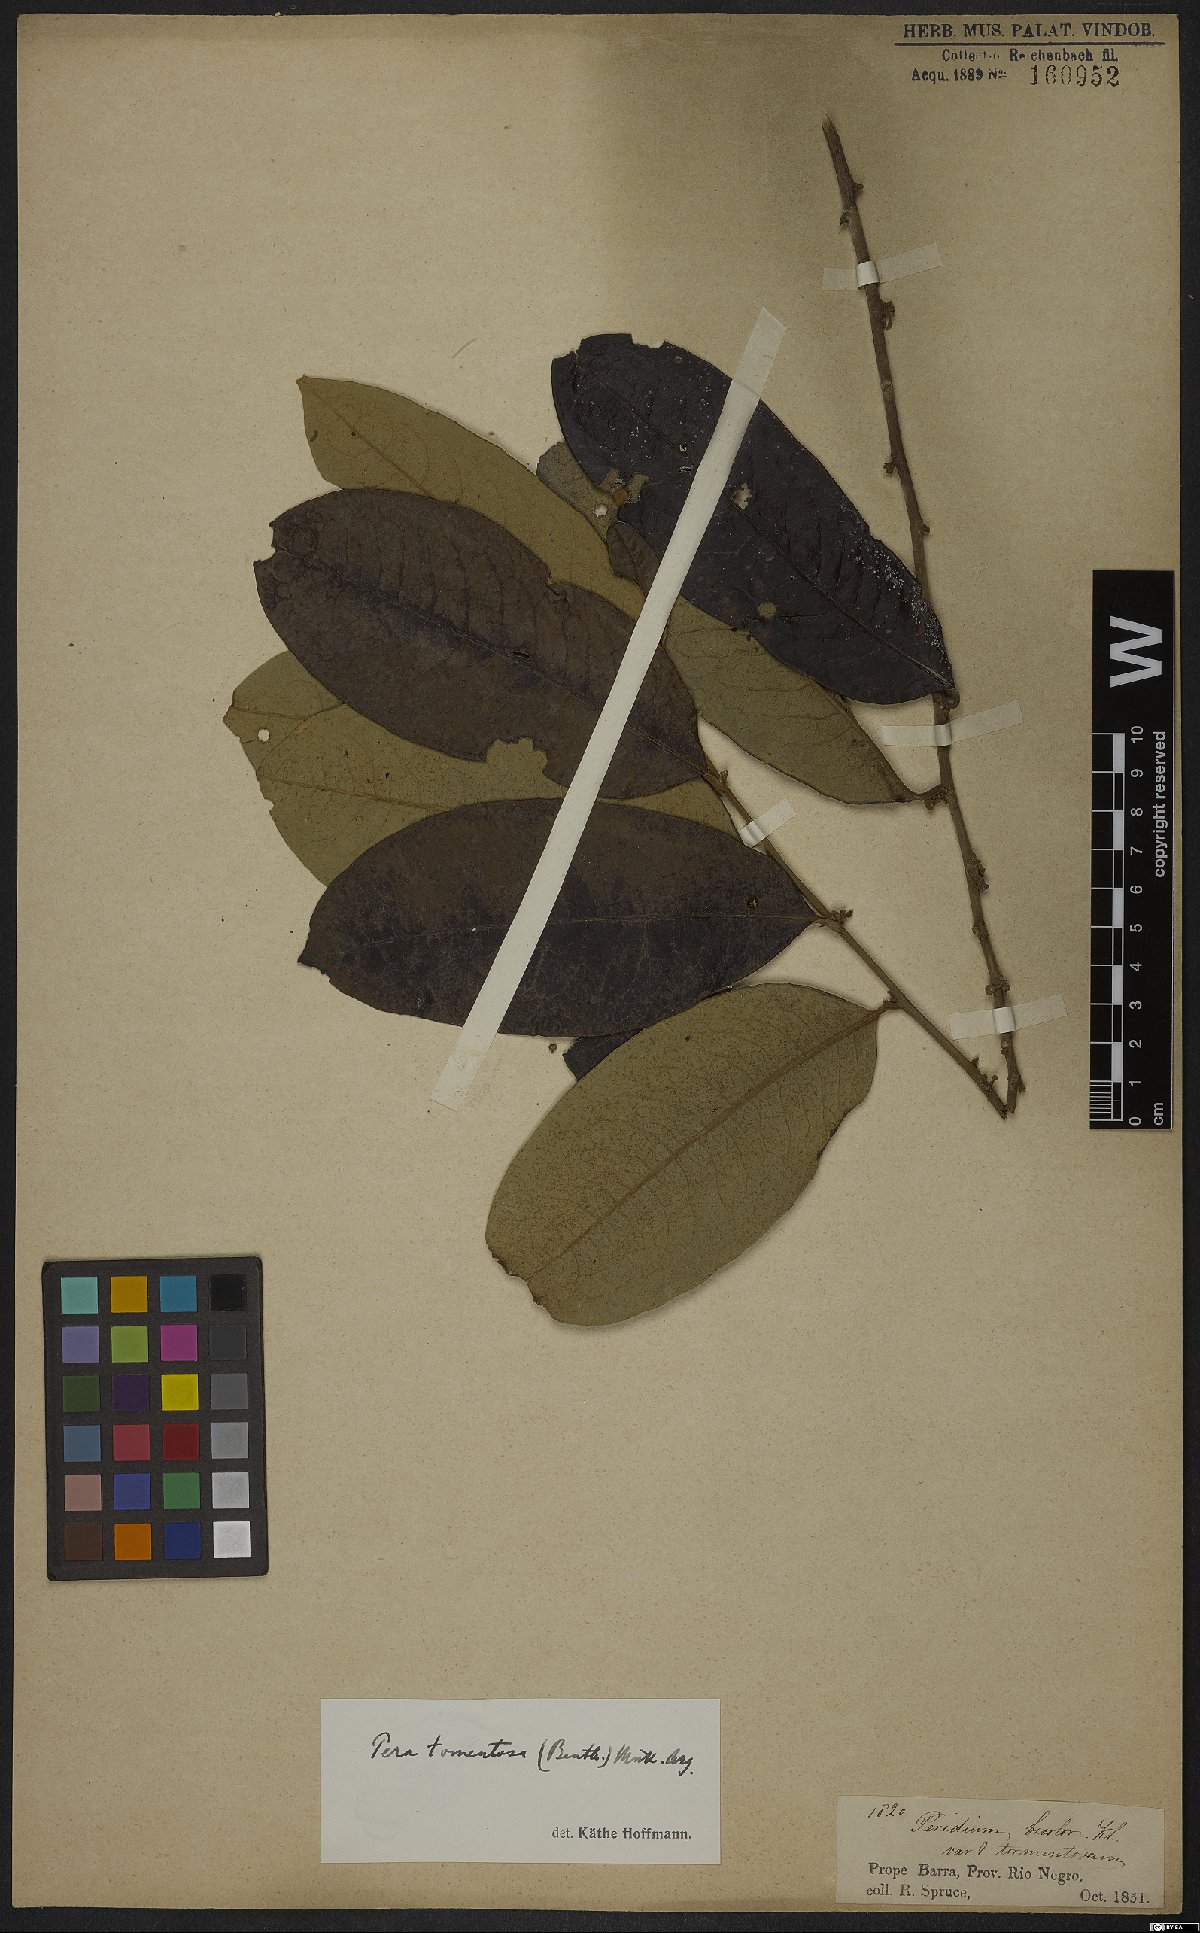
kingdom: Plantae
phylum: Tracheophyta
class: Magnoliopsida
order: Malpighiales
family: Peraceae
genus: Pera
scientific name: Pera tomentosa
